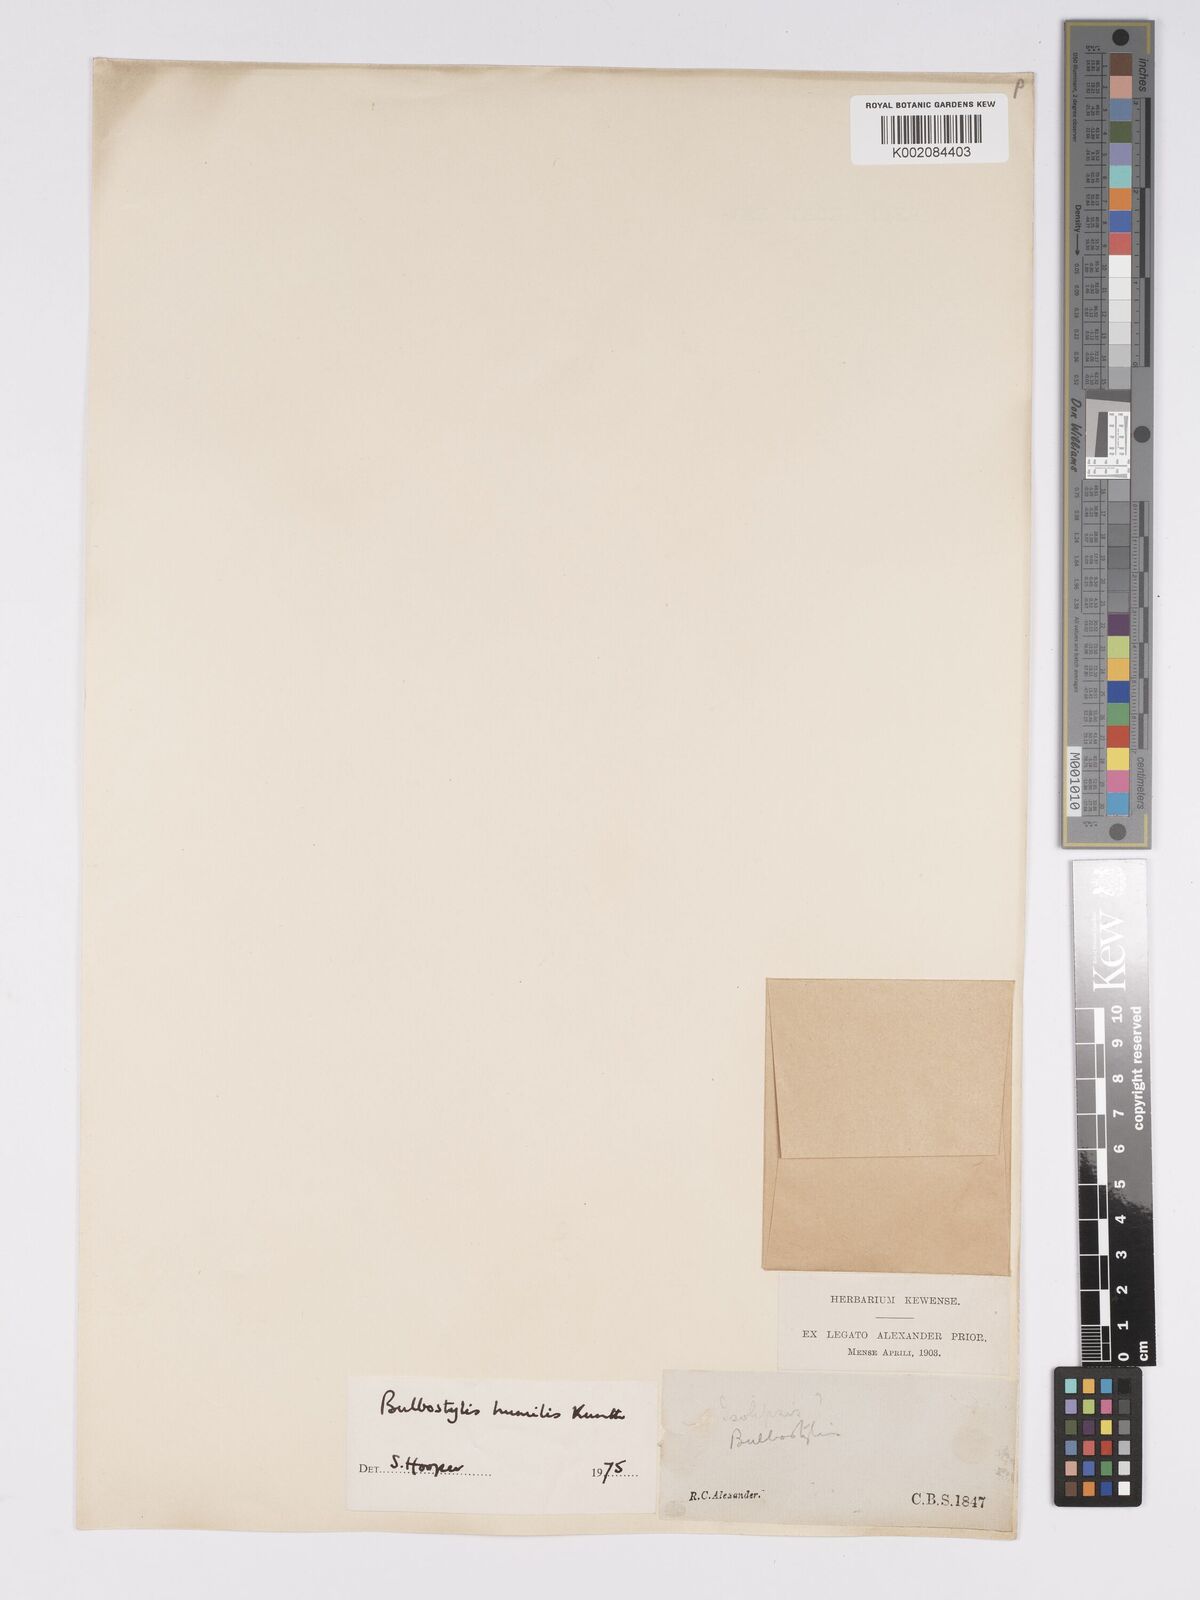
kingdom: Plantae
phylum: Tracheophyta
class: Liliopsida
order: Poales
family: Cyperaceae
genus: Bulbostylis
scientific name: Bulbostylis humilis
